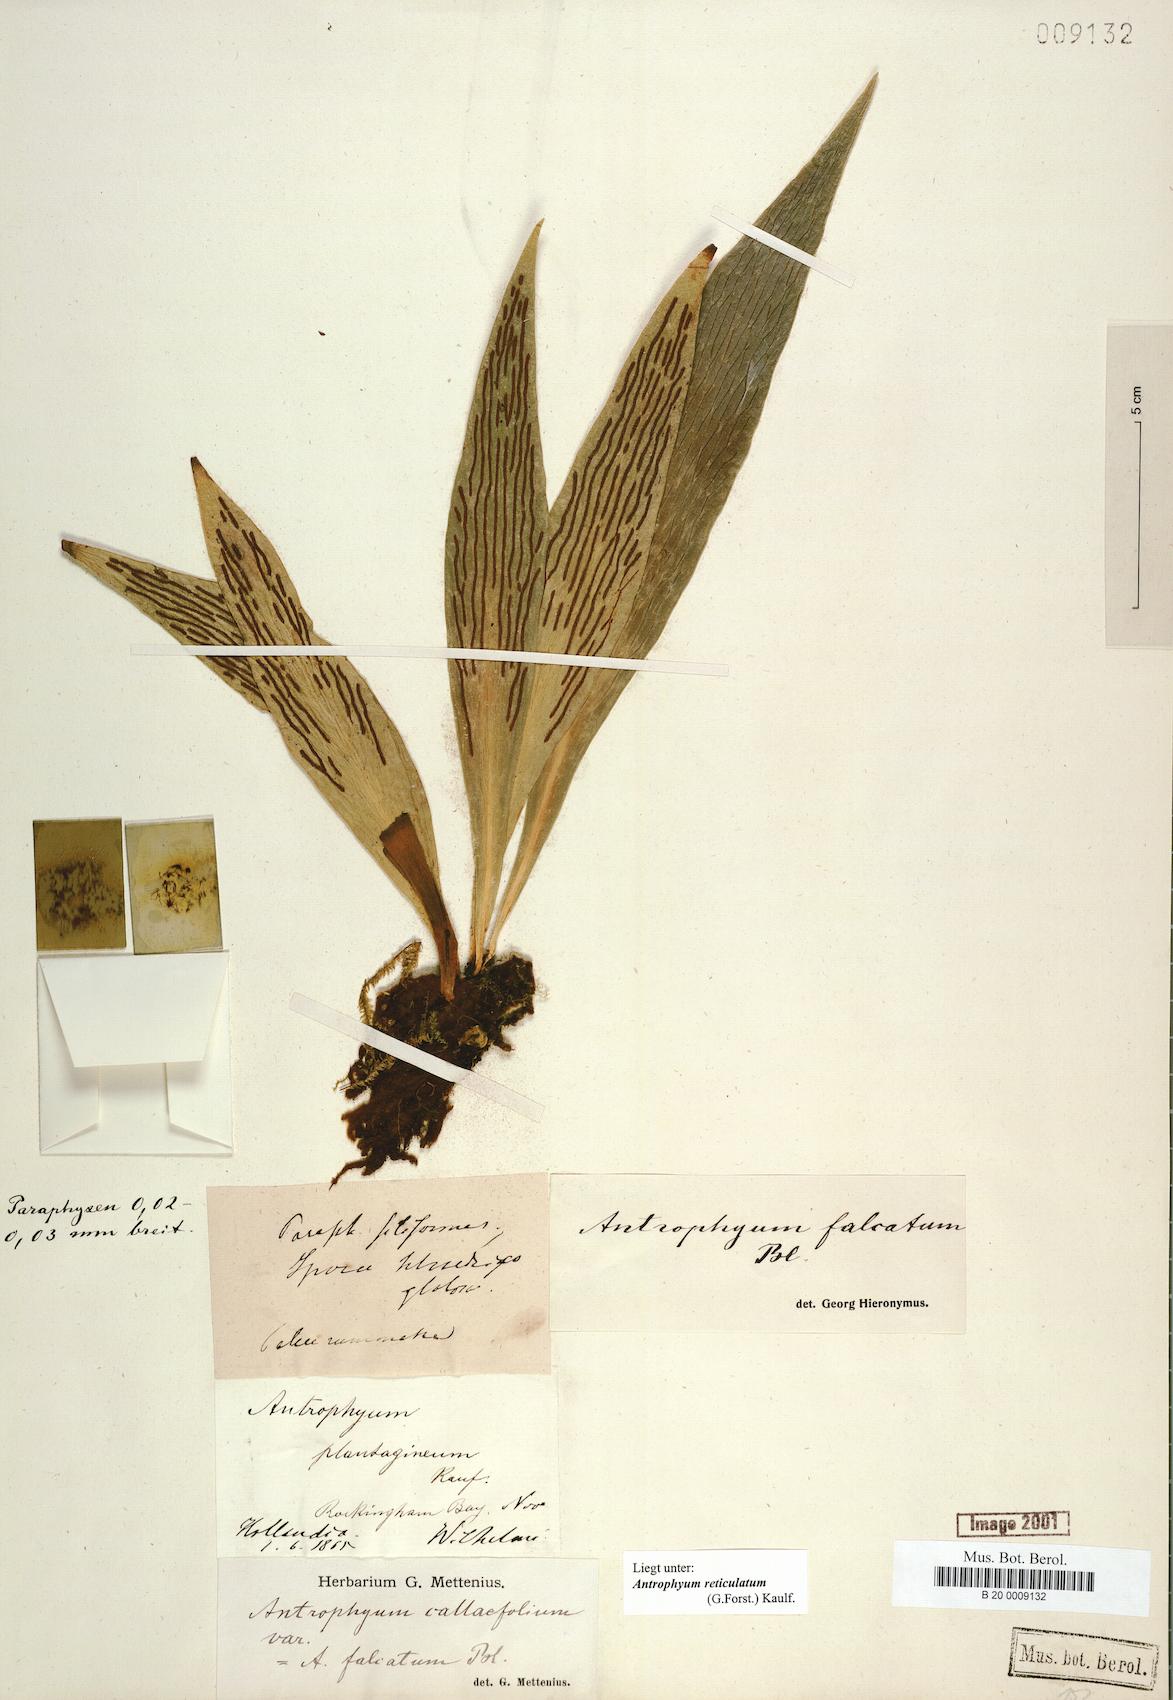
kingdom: Plantae
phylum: Tracheophyta
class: Polypodiopsida
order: Polypodiales
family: Pteridaceae
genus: Antrophyum
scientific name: Antrophyum reticulatum
